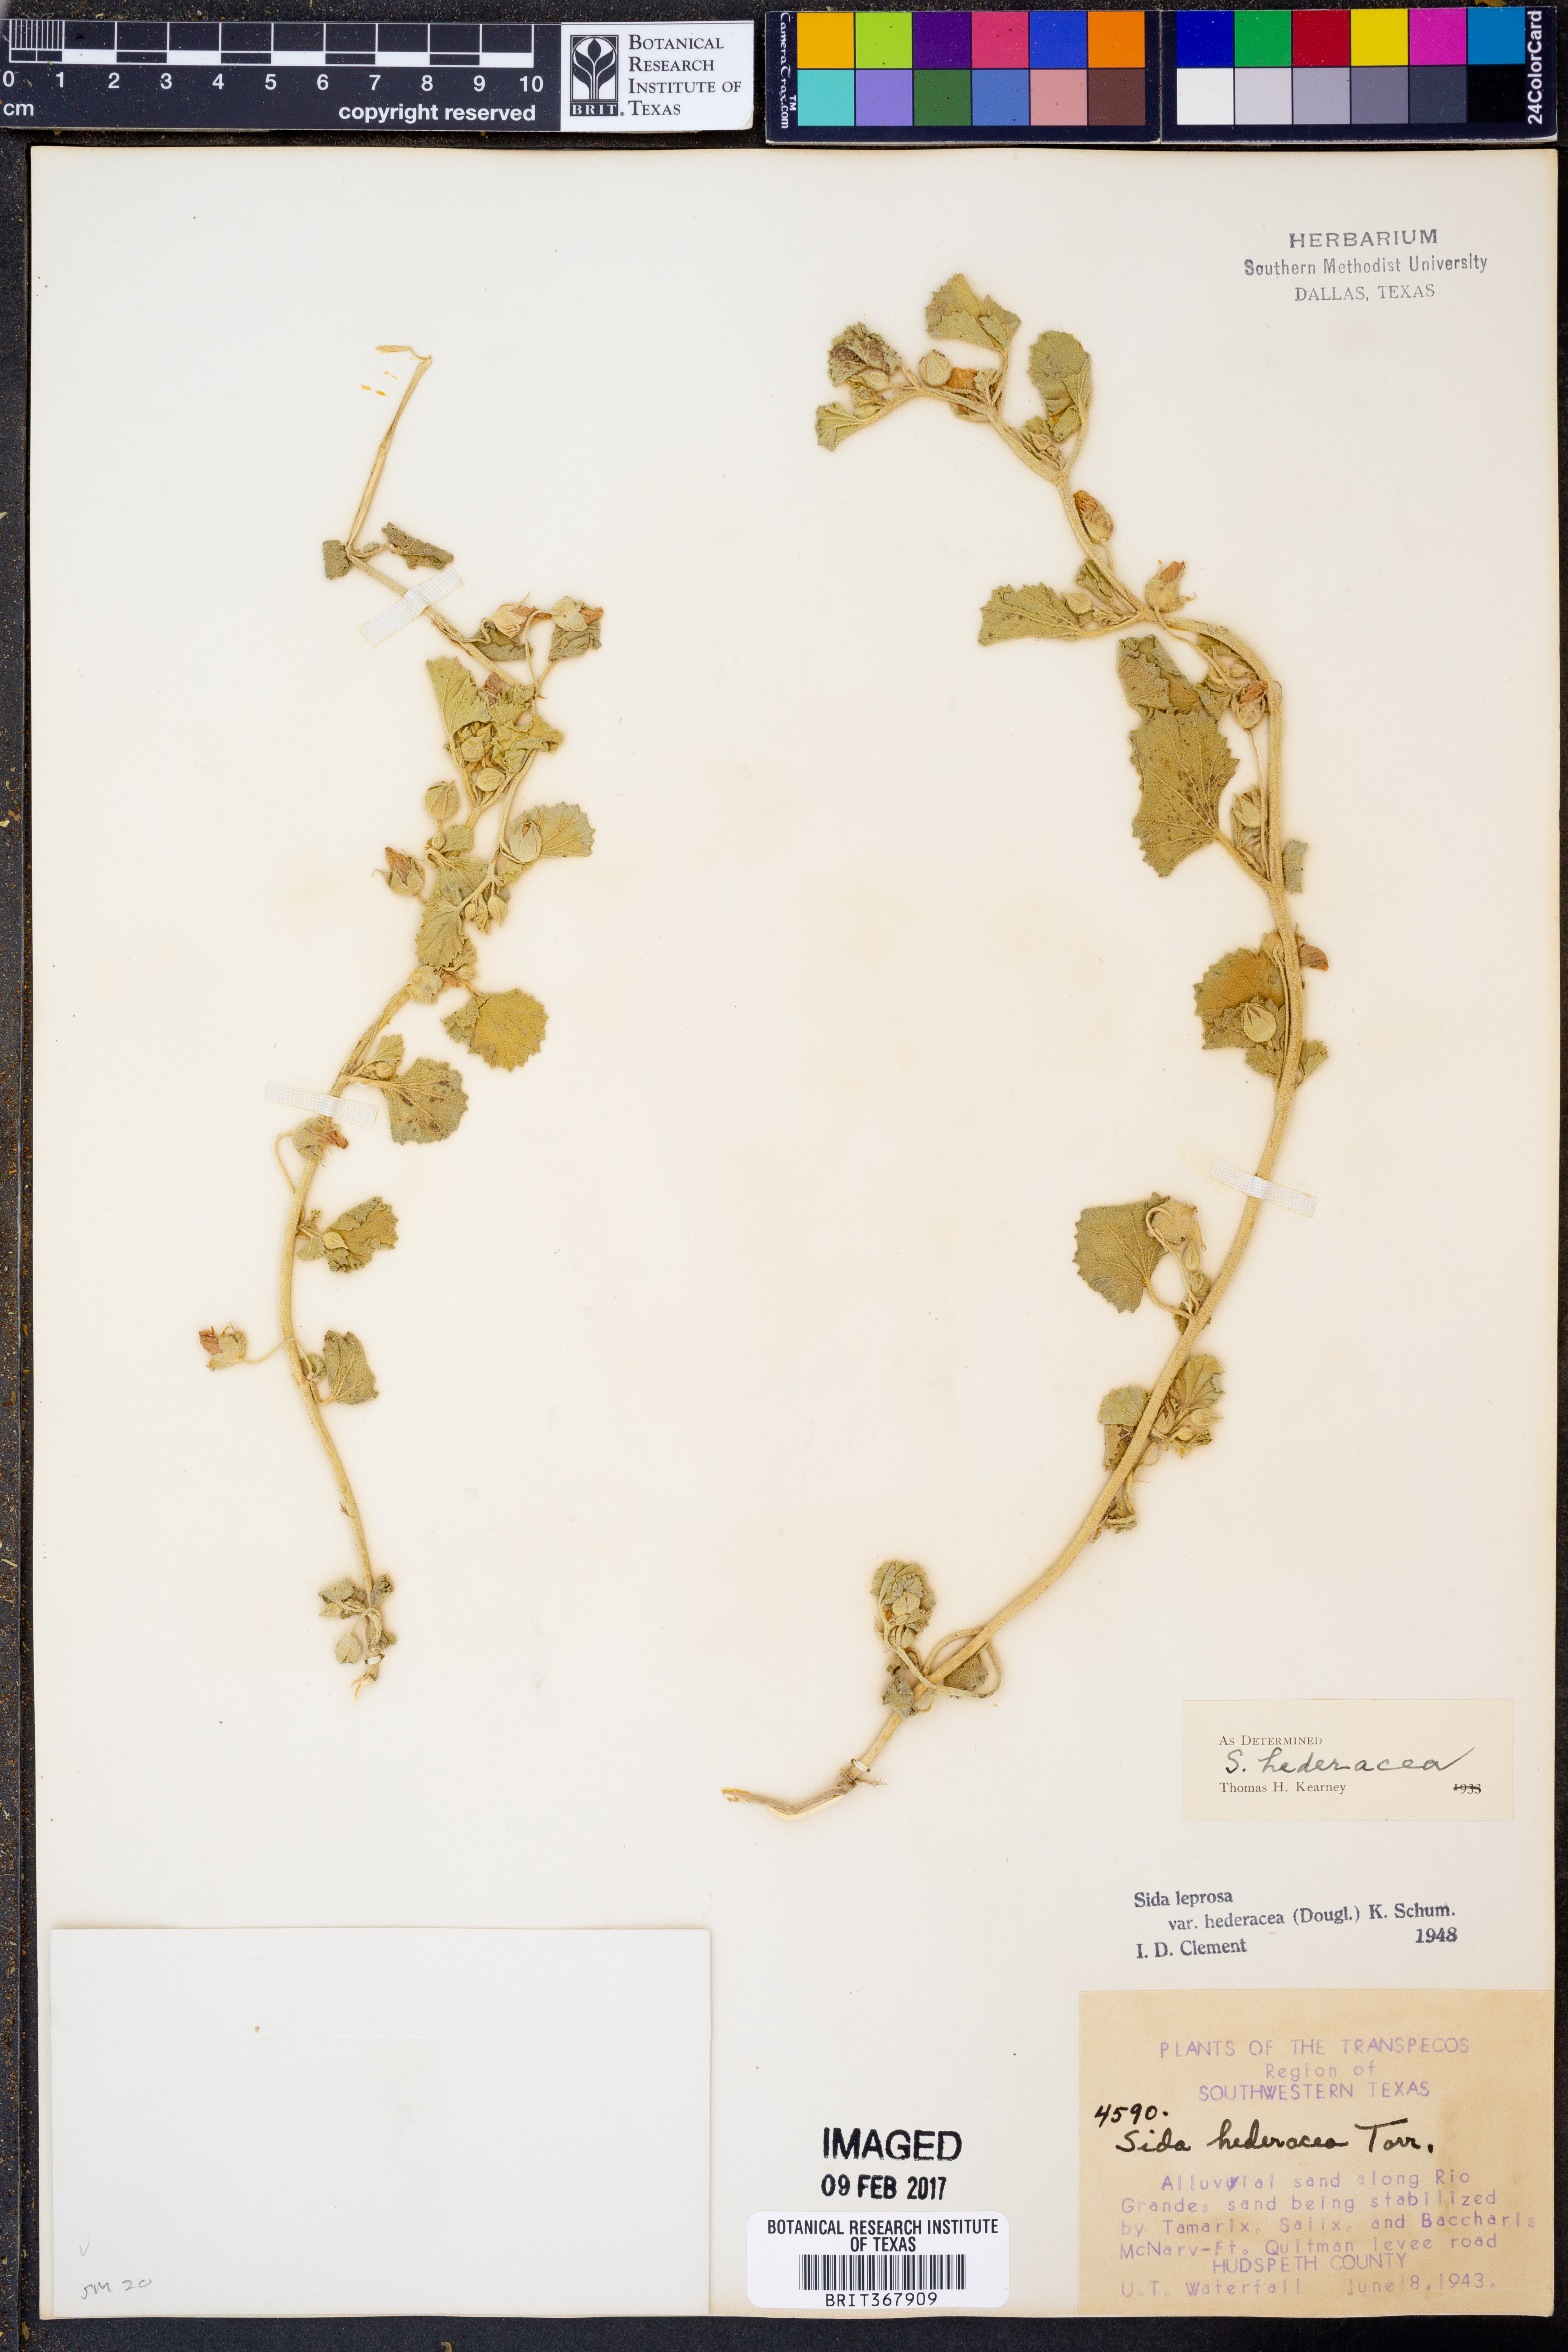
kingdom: Plantae
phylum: Tracheophyta
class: Magnoliopsida
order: Malvales
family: Malvaceae
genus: Malvella
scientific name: Malvella leprosa
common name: Alkali-mallow
